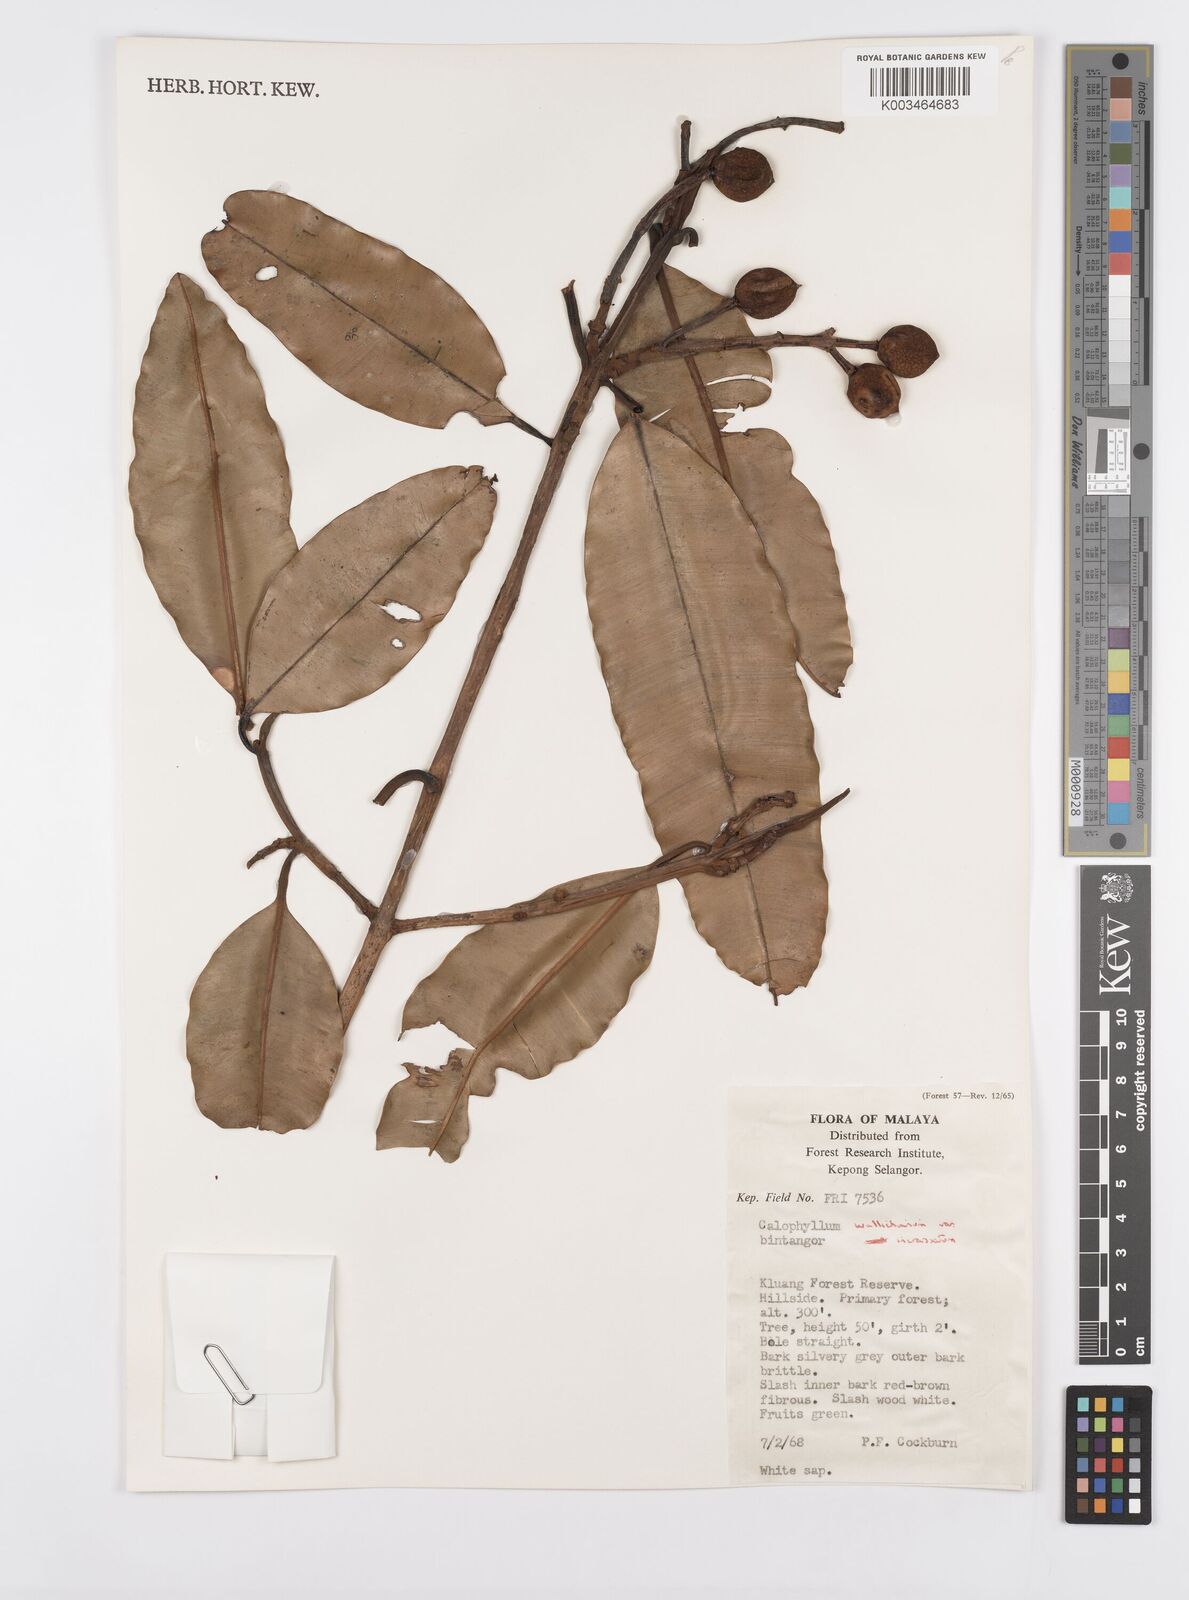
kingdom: Plantae
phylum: Tracheophyta
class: Magnoliopsida
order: Malpighiales
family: Calophyllaceae
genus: Calophyllum
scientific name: Calophyllum wallichiana
